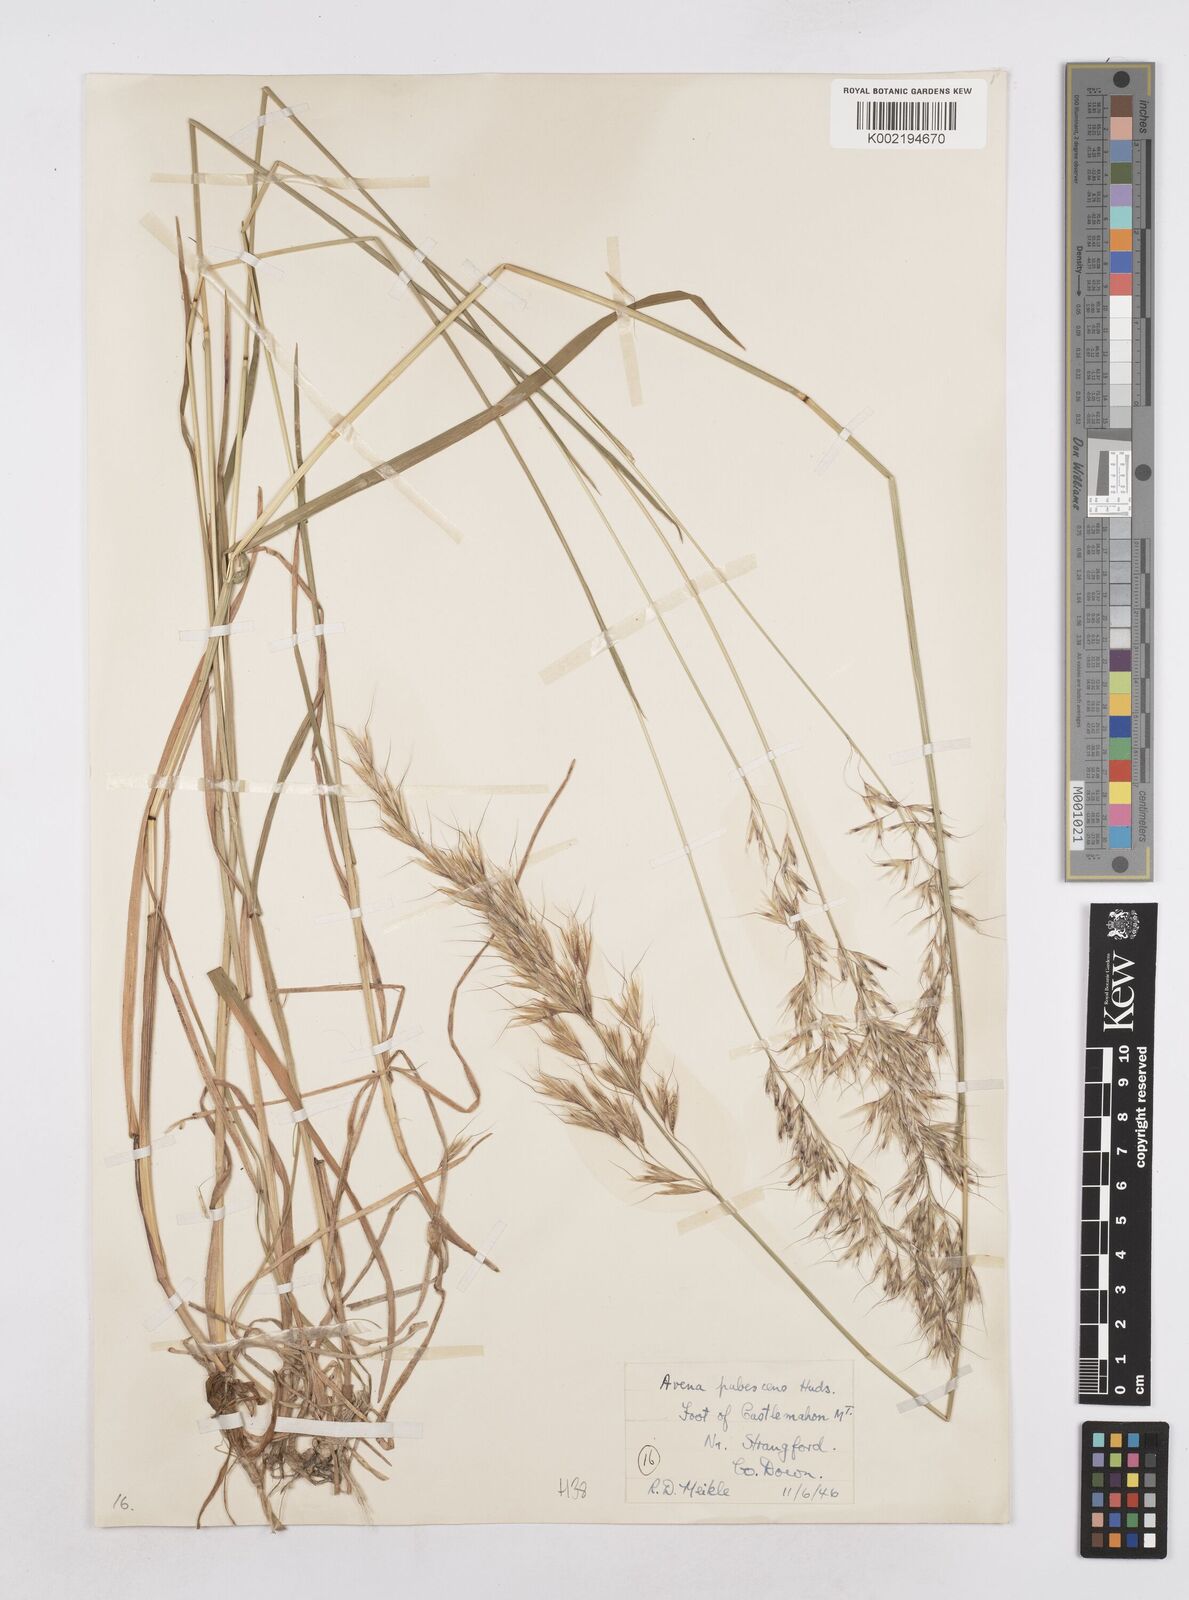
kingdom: Plantae
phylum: Tracheophyta
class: Liliopsida
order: Poales
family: Poaceae
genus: Avenula
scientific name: Avenula pubescens
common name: Downy alpine oatgrass
